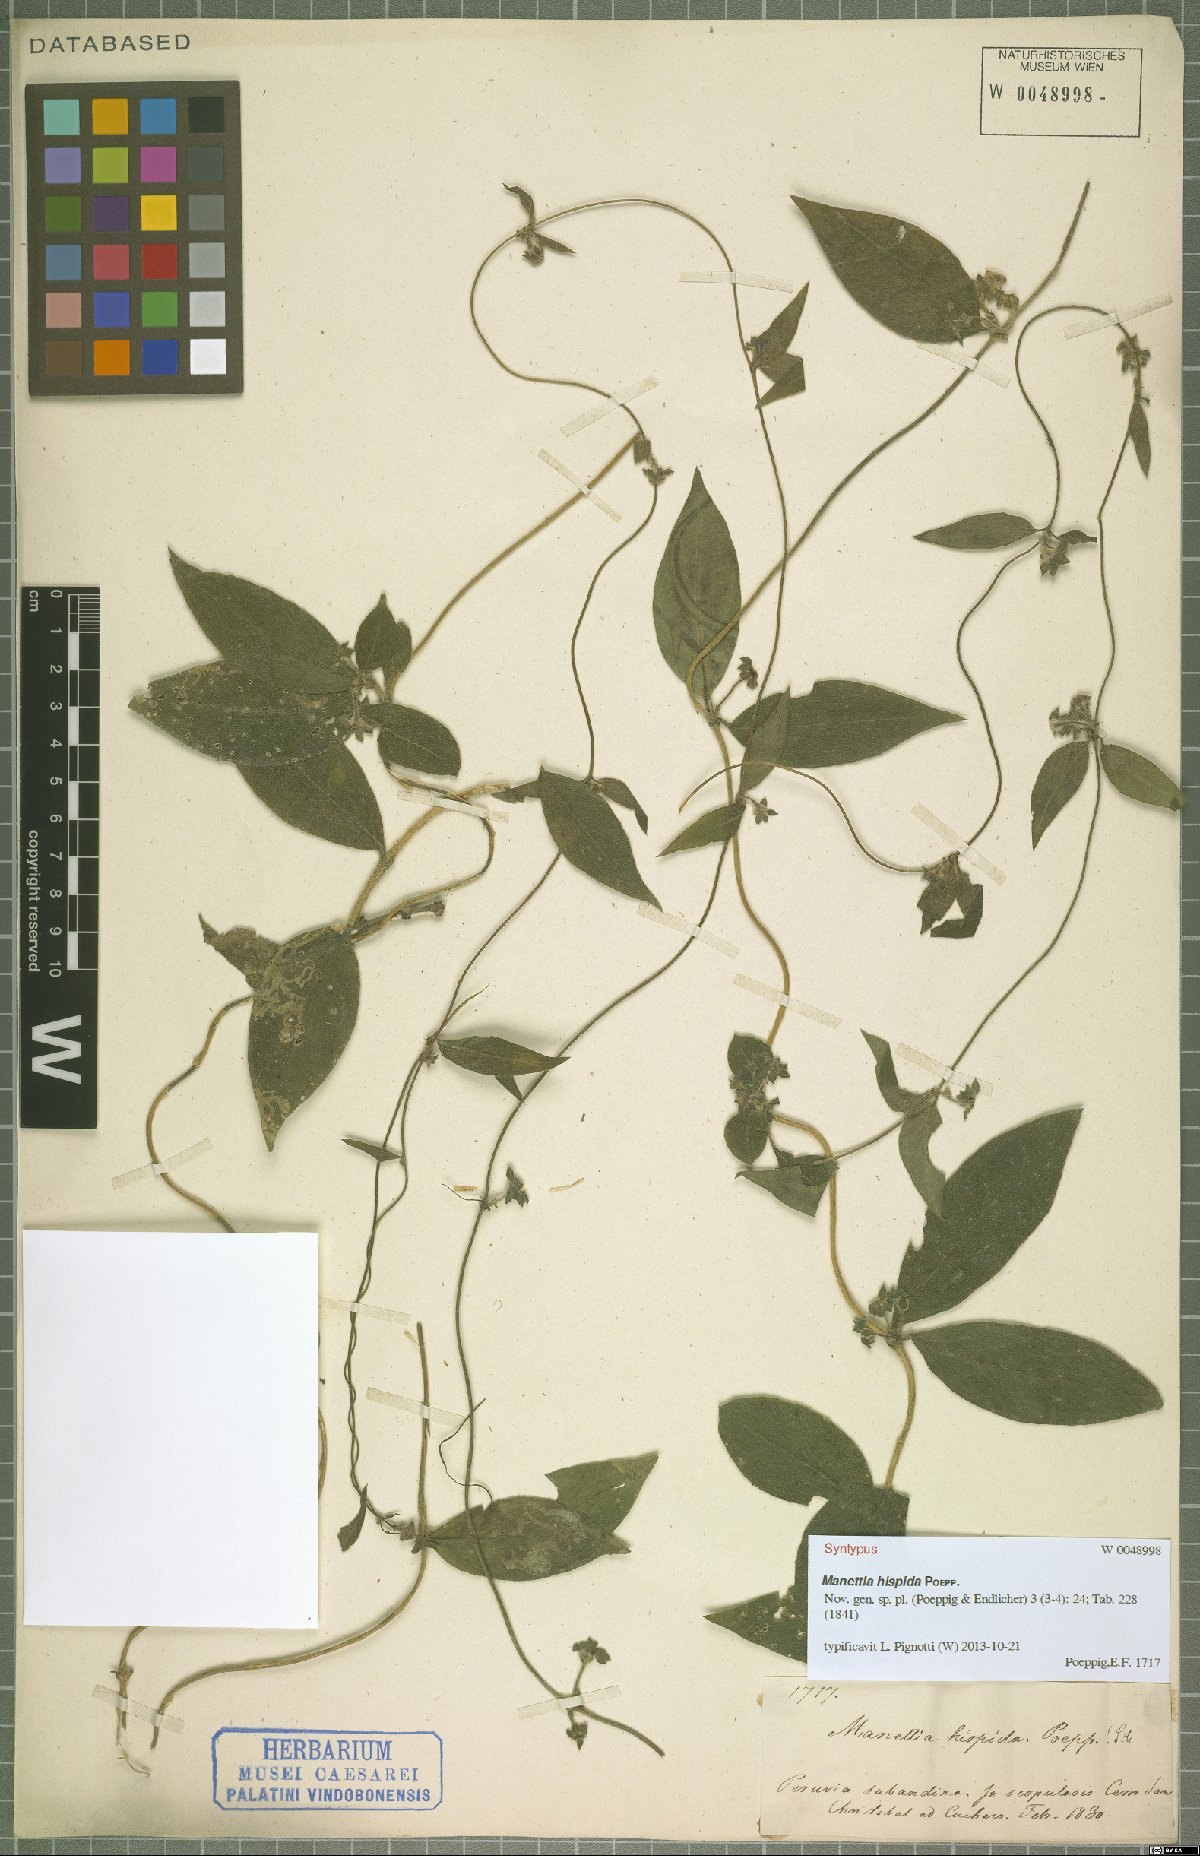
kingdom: Plantae
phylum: Tracheophyta
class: Magnoliopsida
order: Gentianales
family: Rubiaceae
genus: Manettia
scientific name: Manettia hispida
